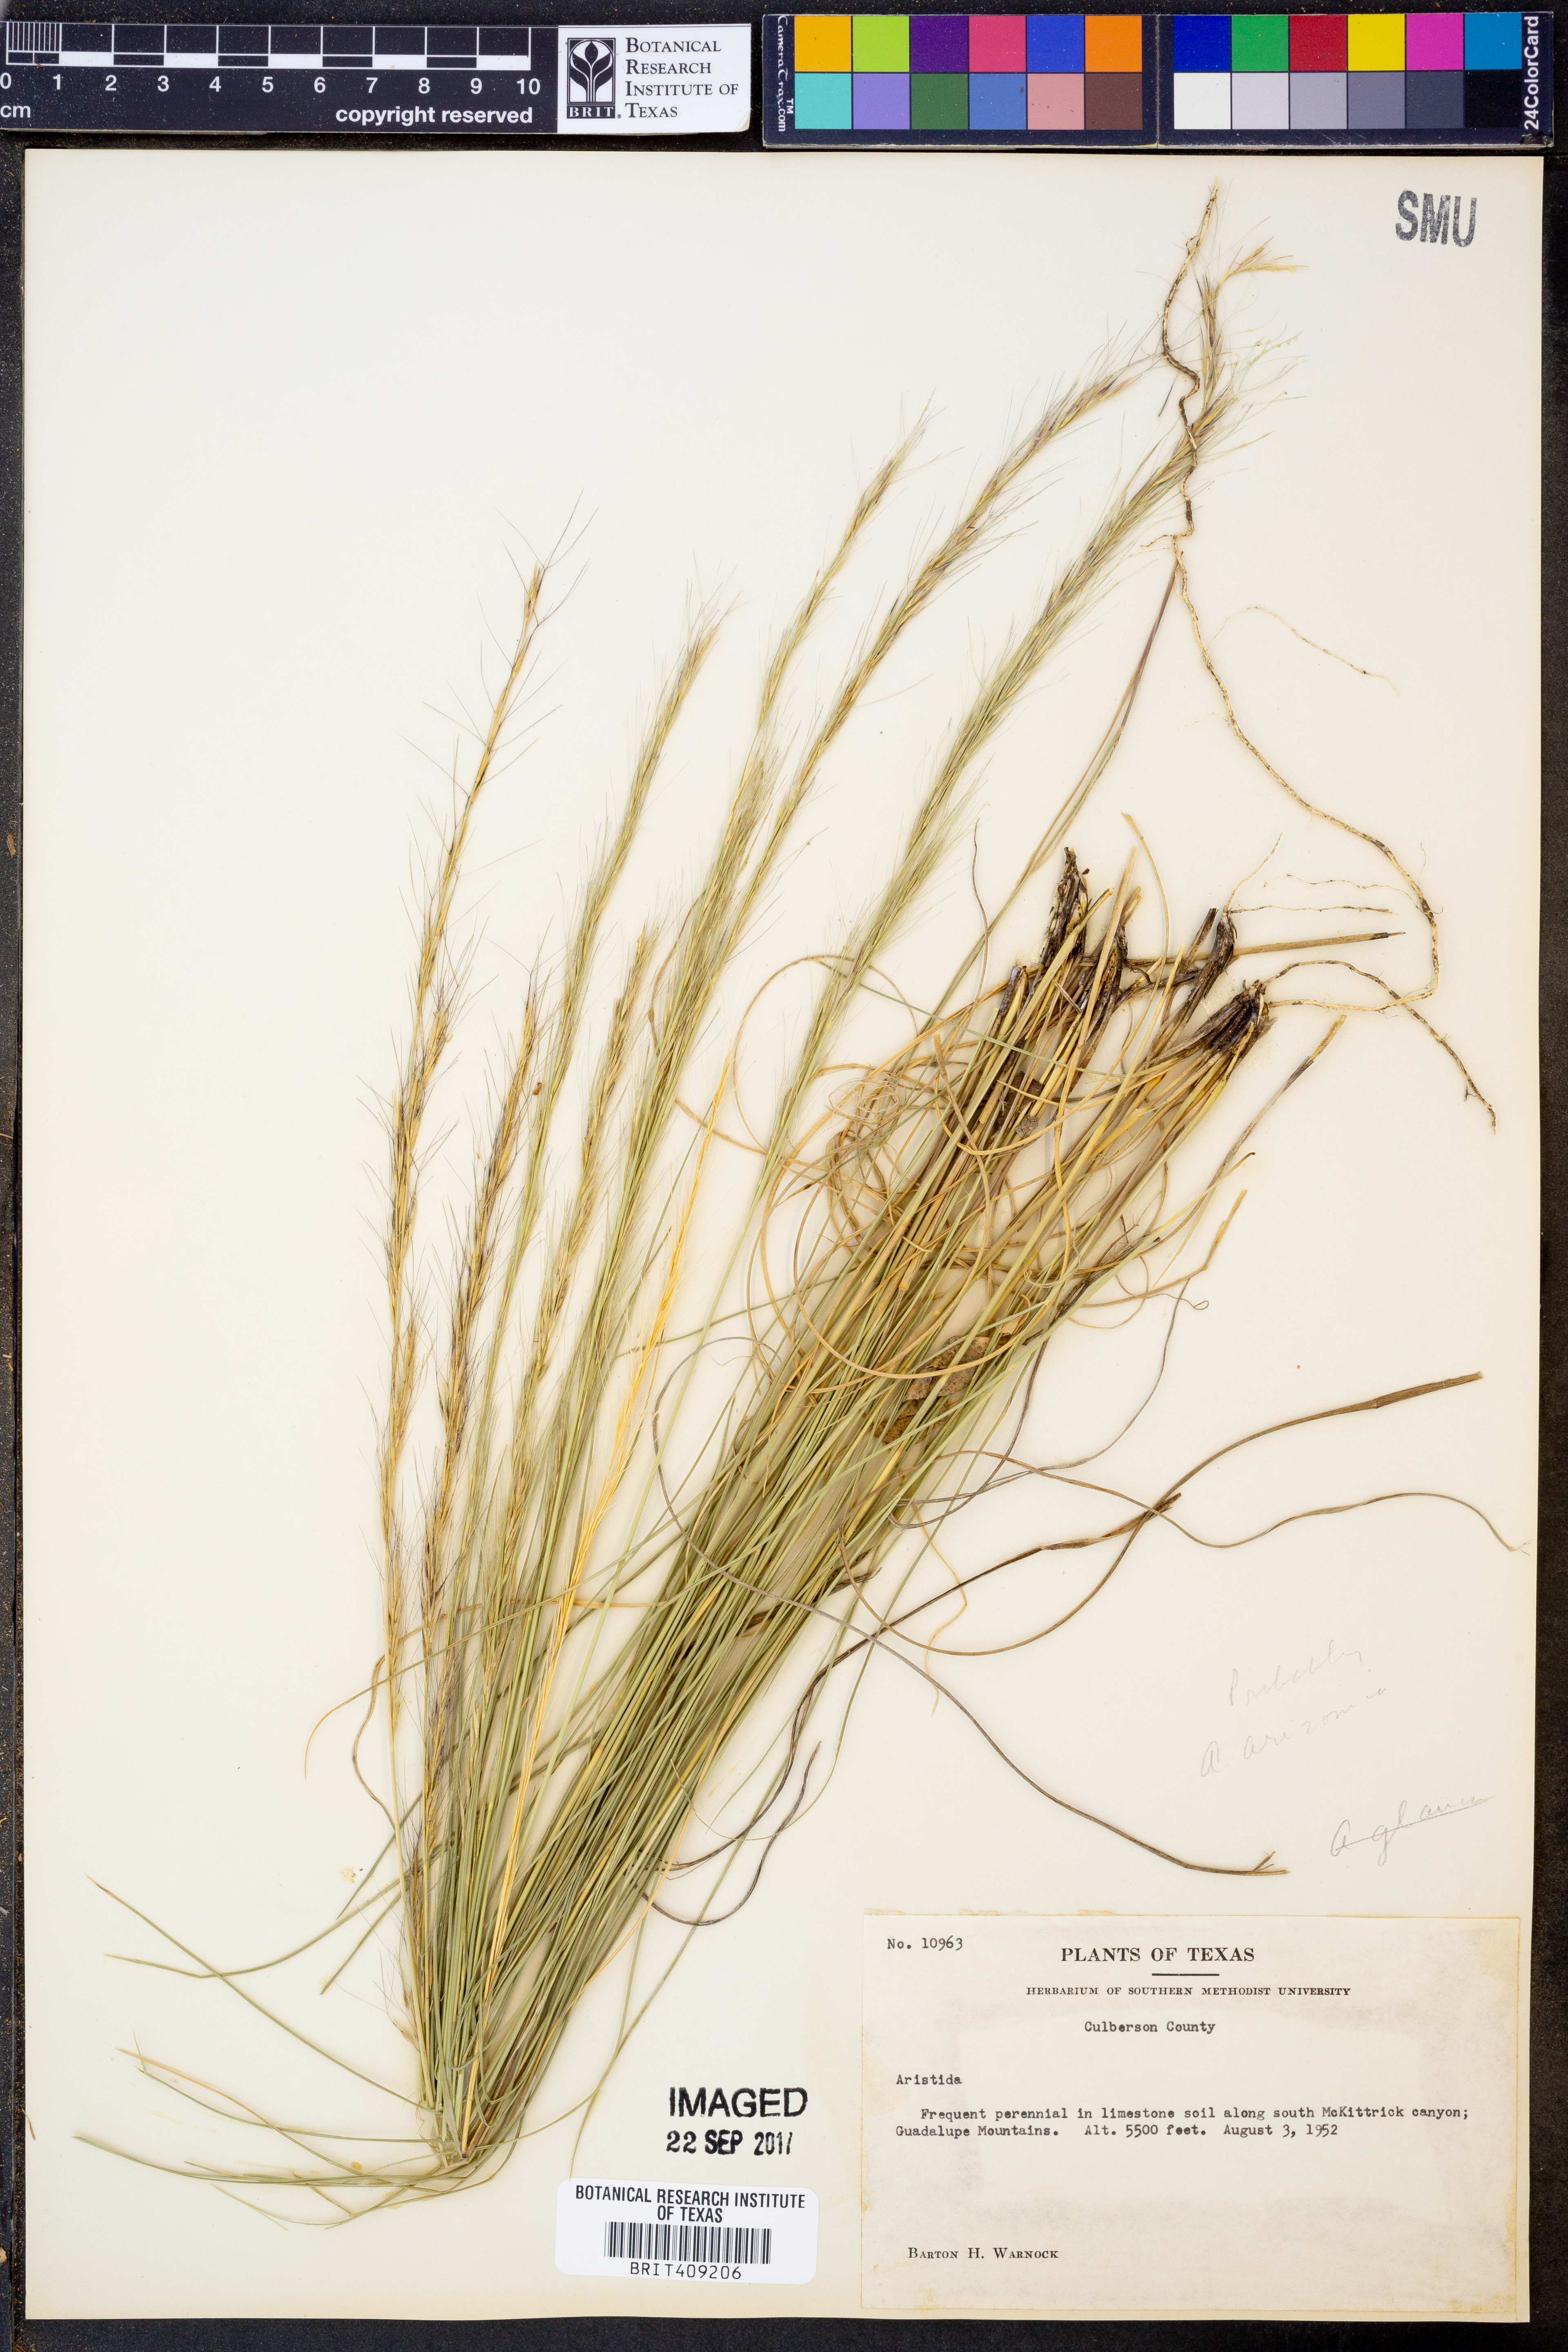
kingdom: Plantae
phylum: Tracheophyta
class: Liliopsida
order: Poales
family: Poaceae
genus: Aristida
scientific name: Aristida
